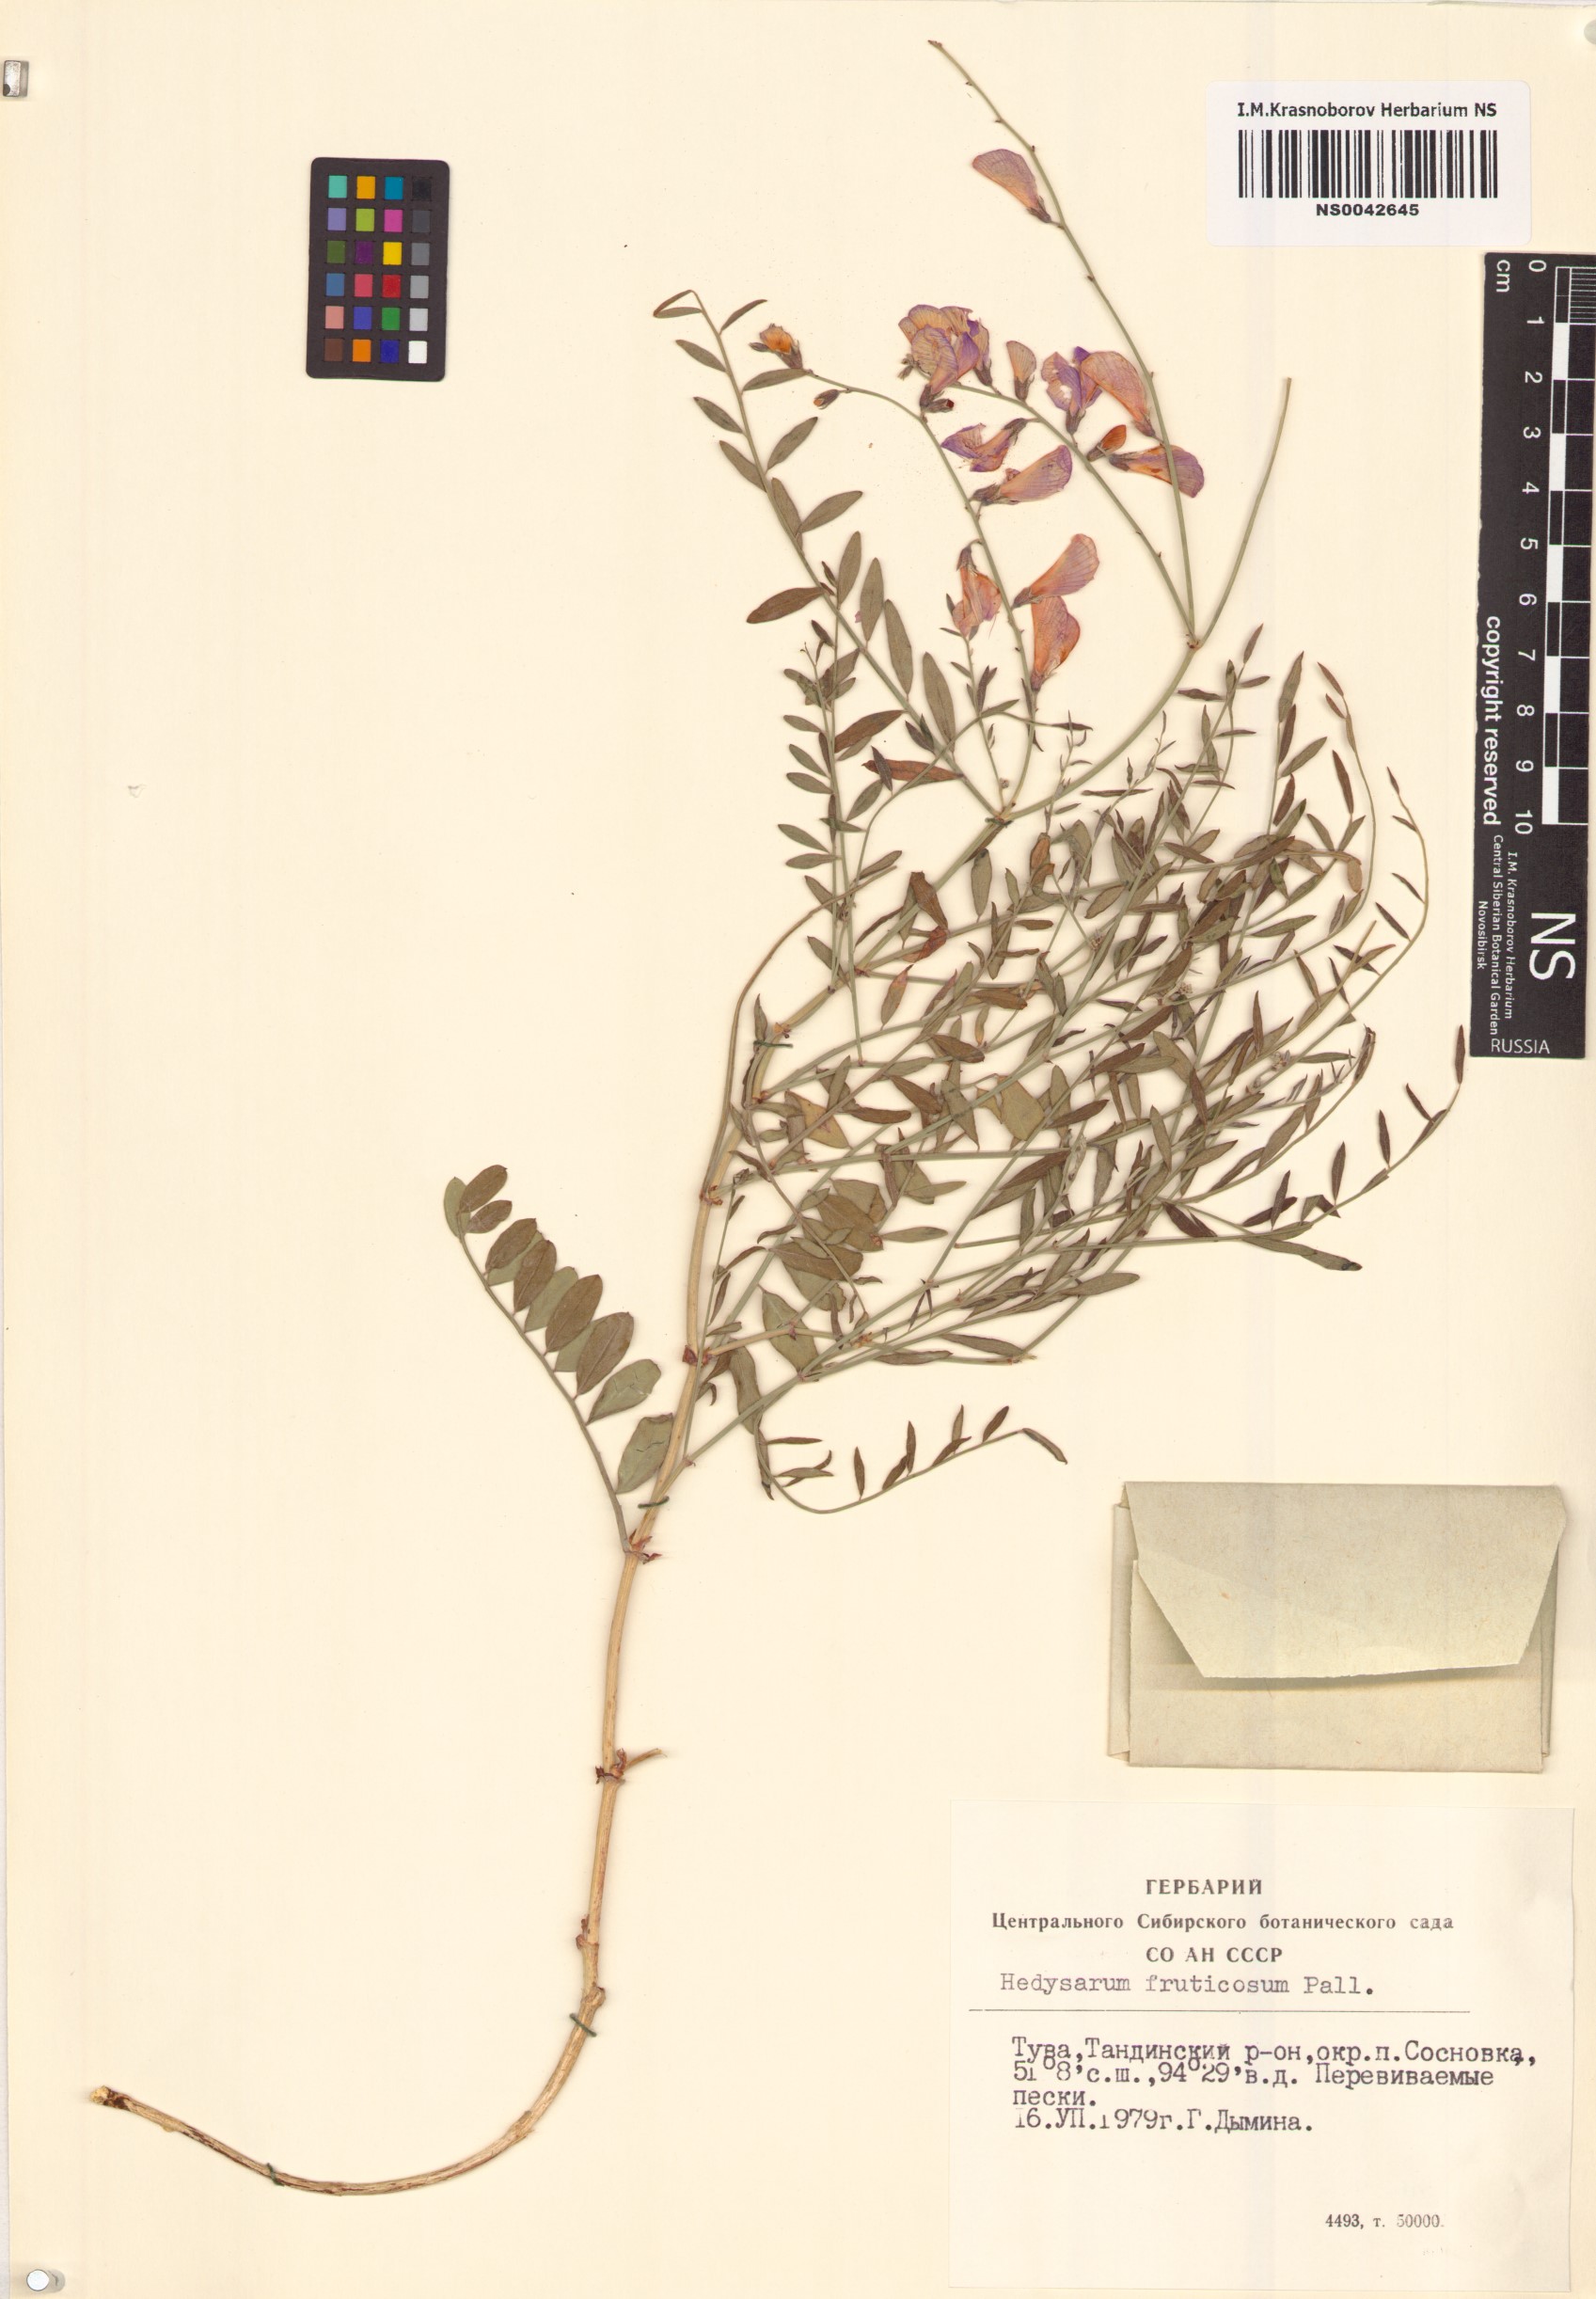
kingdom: Plantae
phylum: Tracheophyta
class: Magnoliopsida
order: Fabales
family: Fabaceae
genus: Corethrodendron
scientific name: Corethrodendron fruticosum
